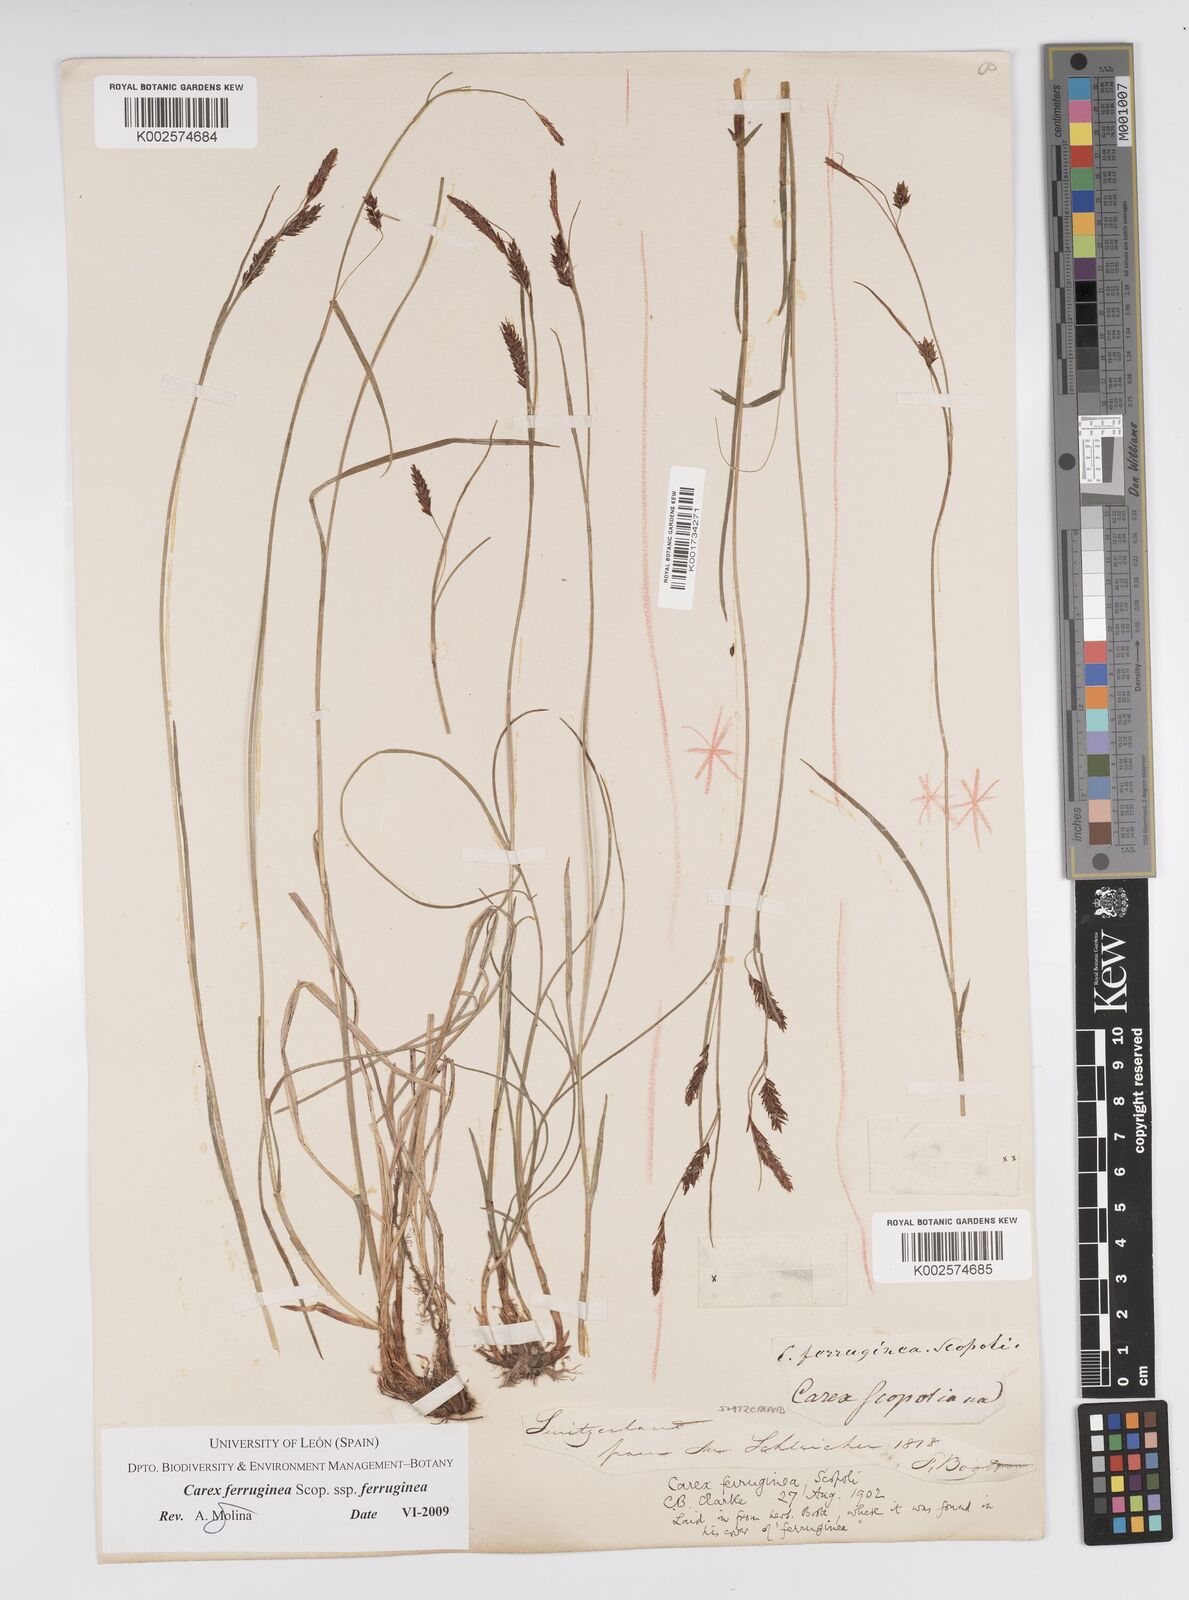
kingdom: Plantae
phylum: Tracheophyta
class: Liliopsida
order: Poales
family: Cyperaceae
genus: Carex
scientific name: Carex ferruginea
